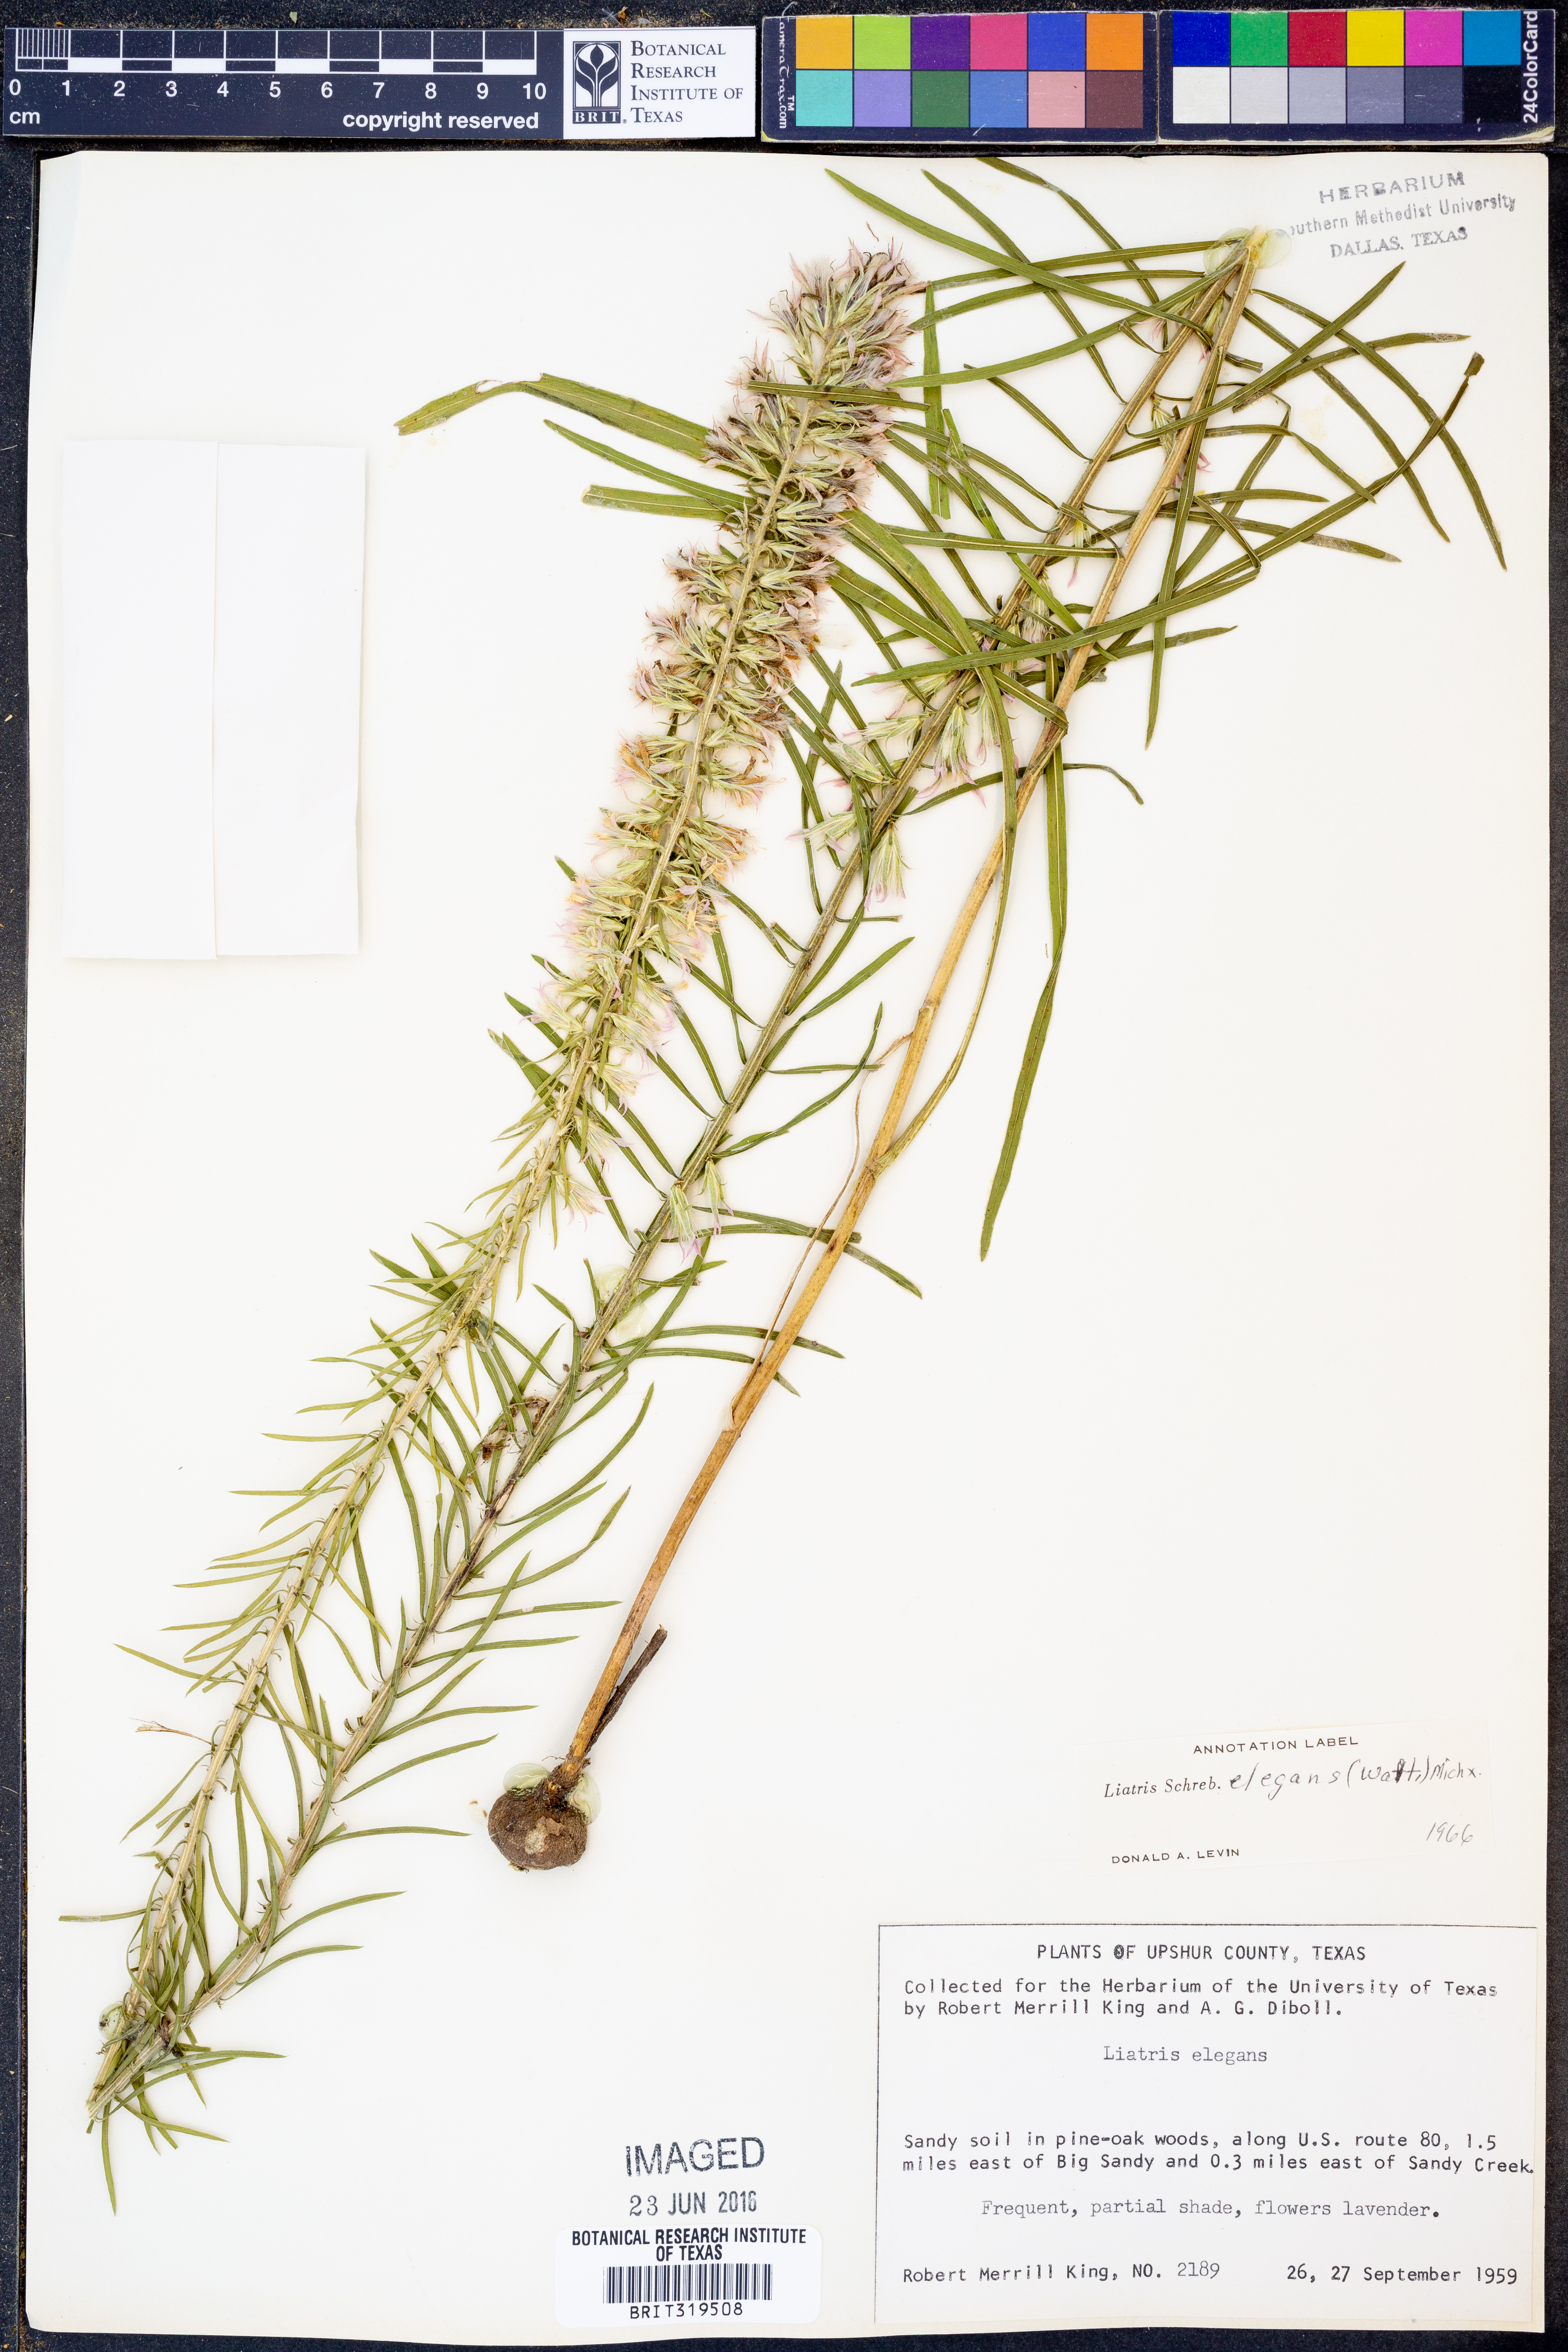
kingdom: Plantae
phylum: Tracheophyta
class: Magnoliopsida
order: Asterales
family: Asteraceae
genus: Liatris
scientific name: Liatris elegans
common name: Pinkscale gayfeather
